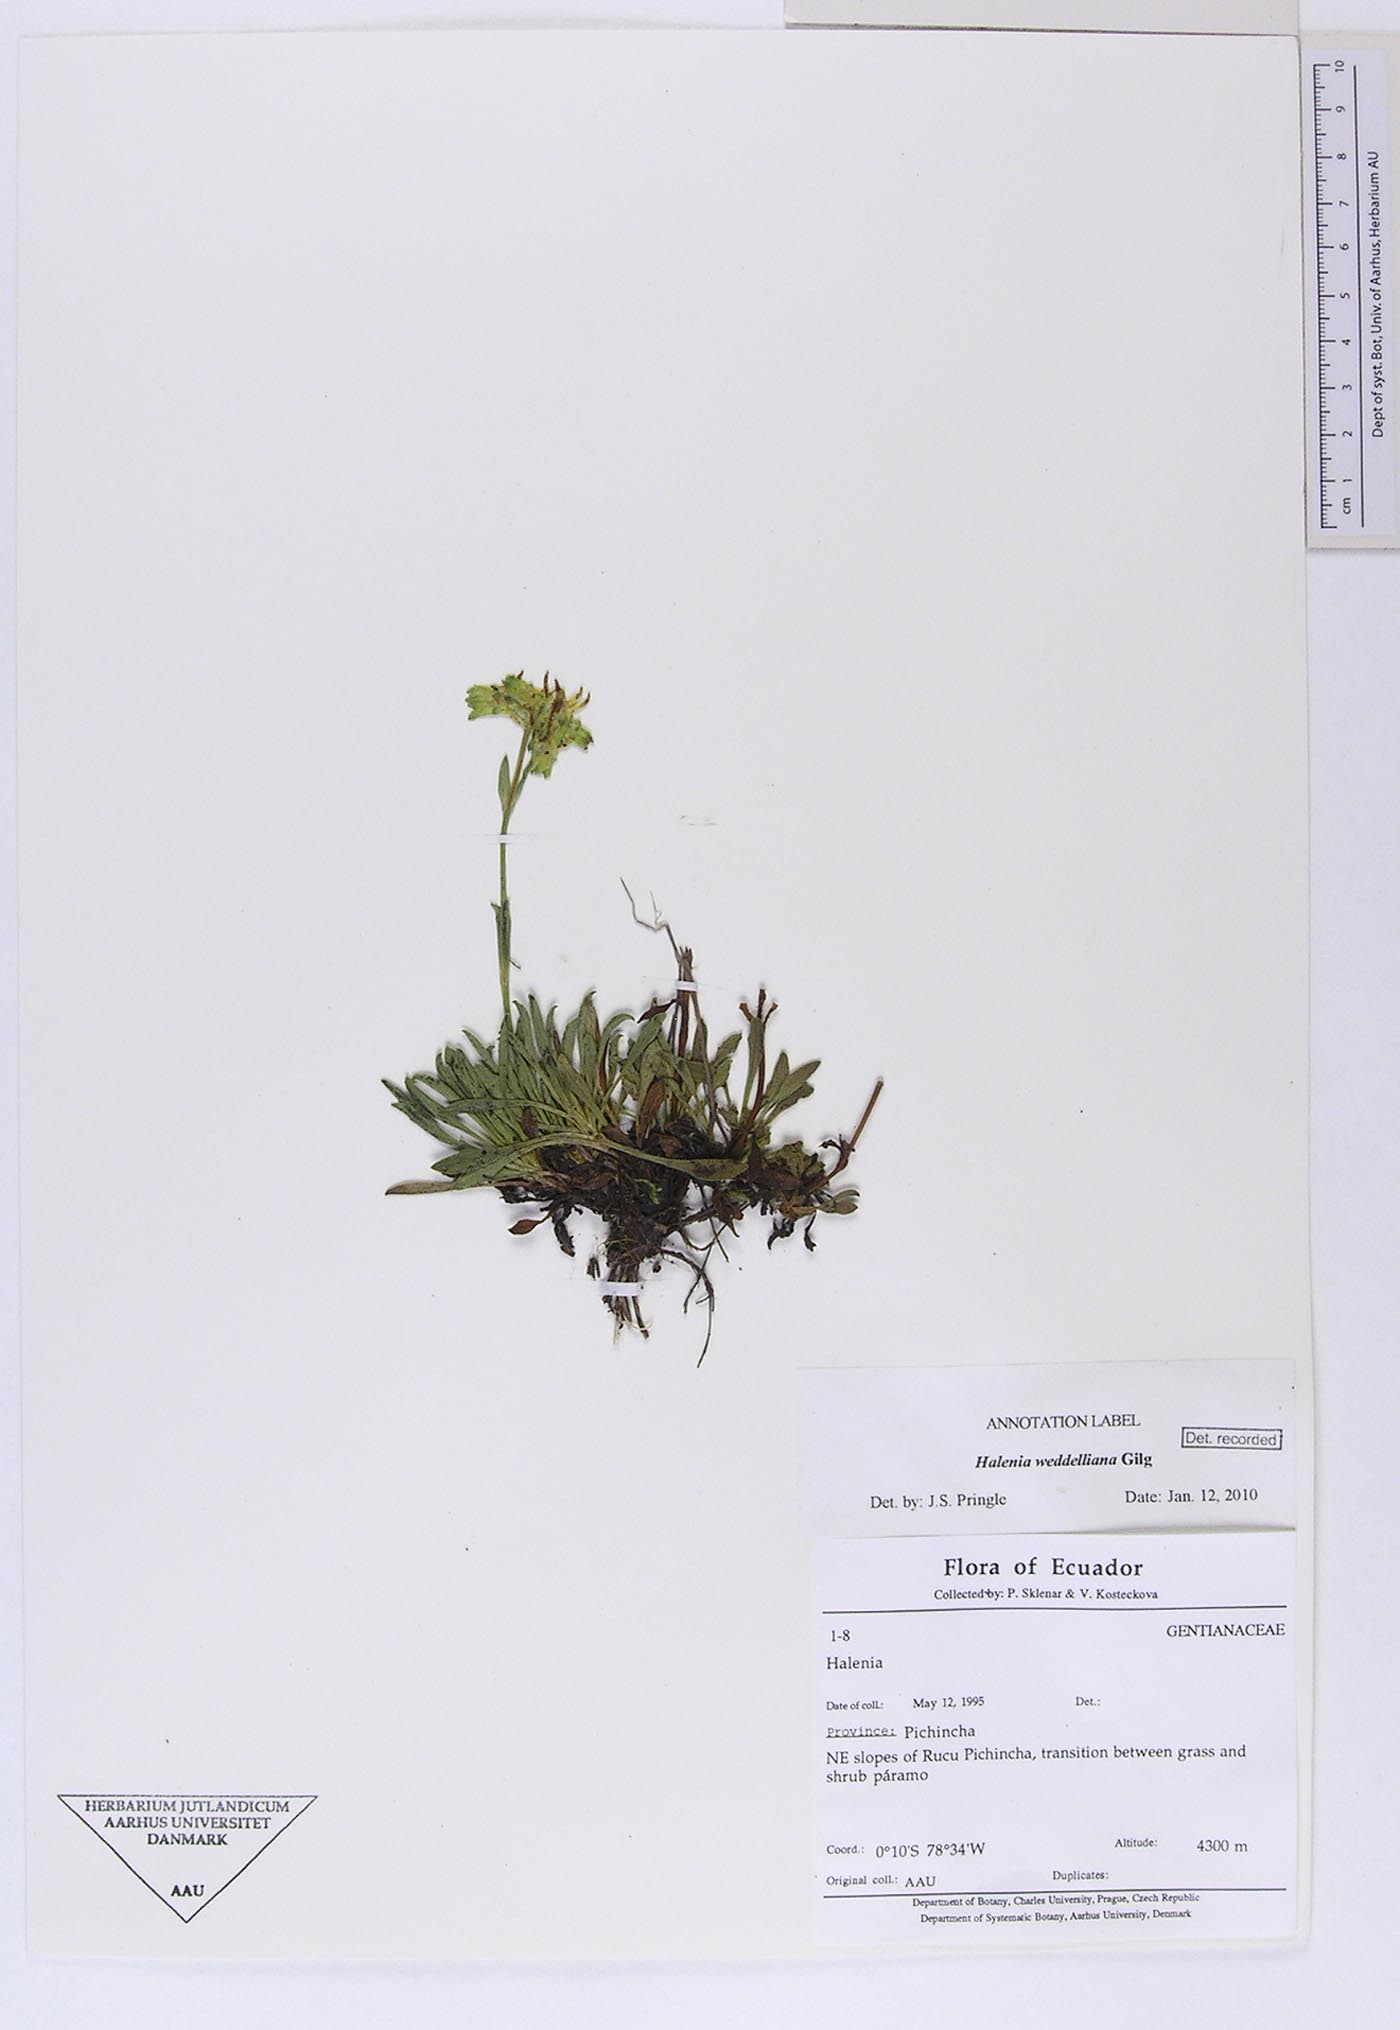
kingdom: Plantae
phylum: Tracheophyta
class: Magnoliopsida
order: Gentianales
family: Gentianaceae
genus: Halenia
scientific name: Halenia weddelliana
